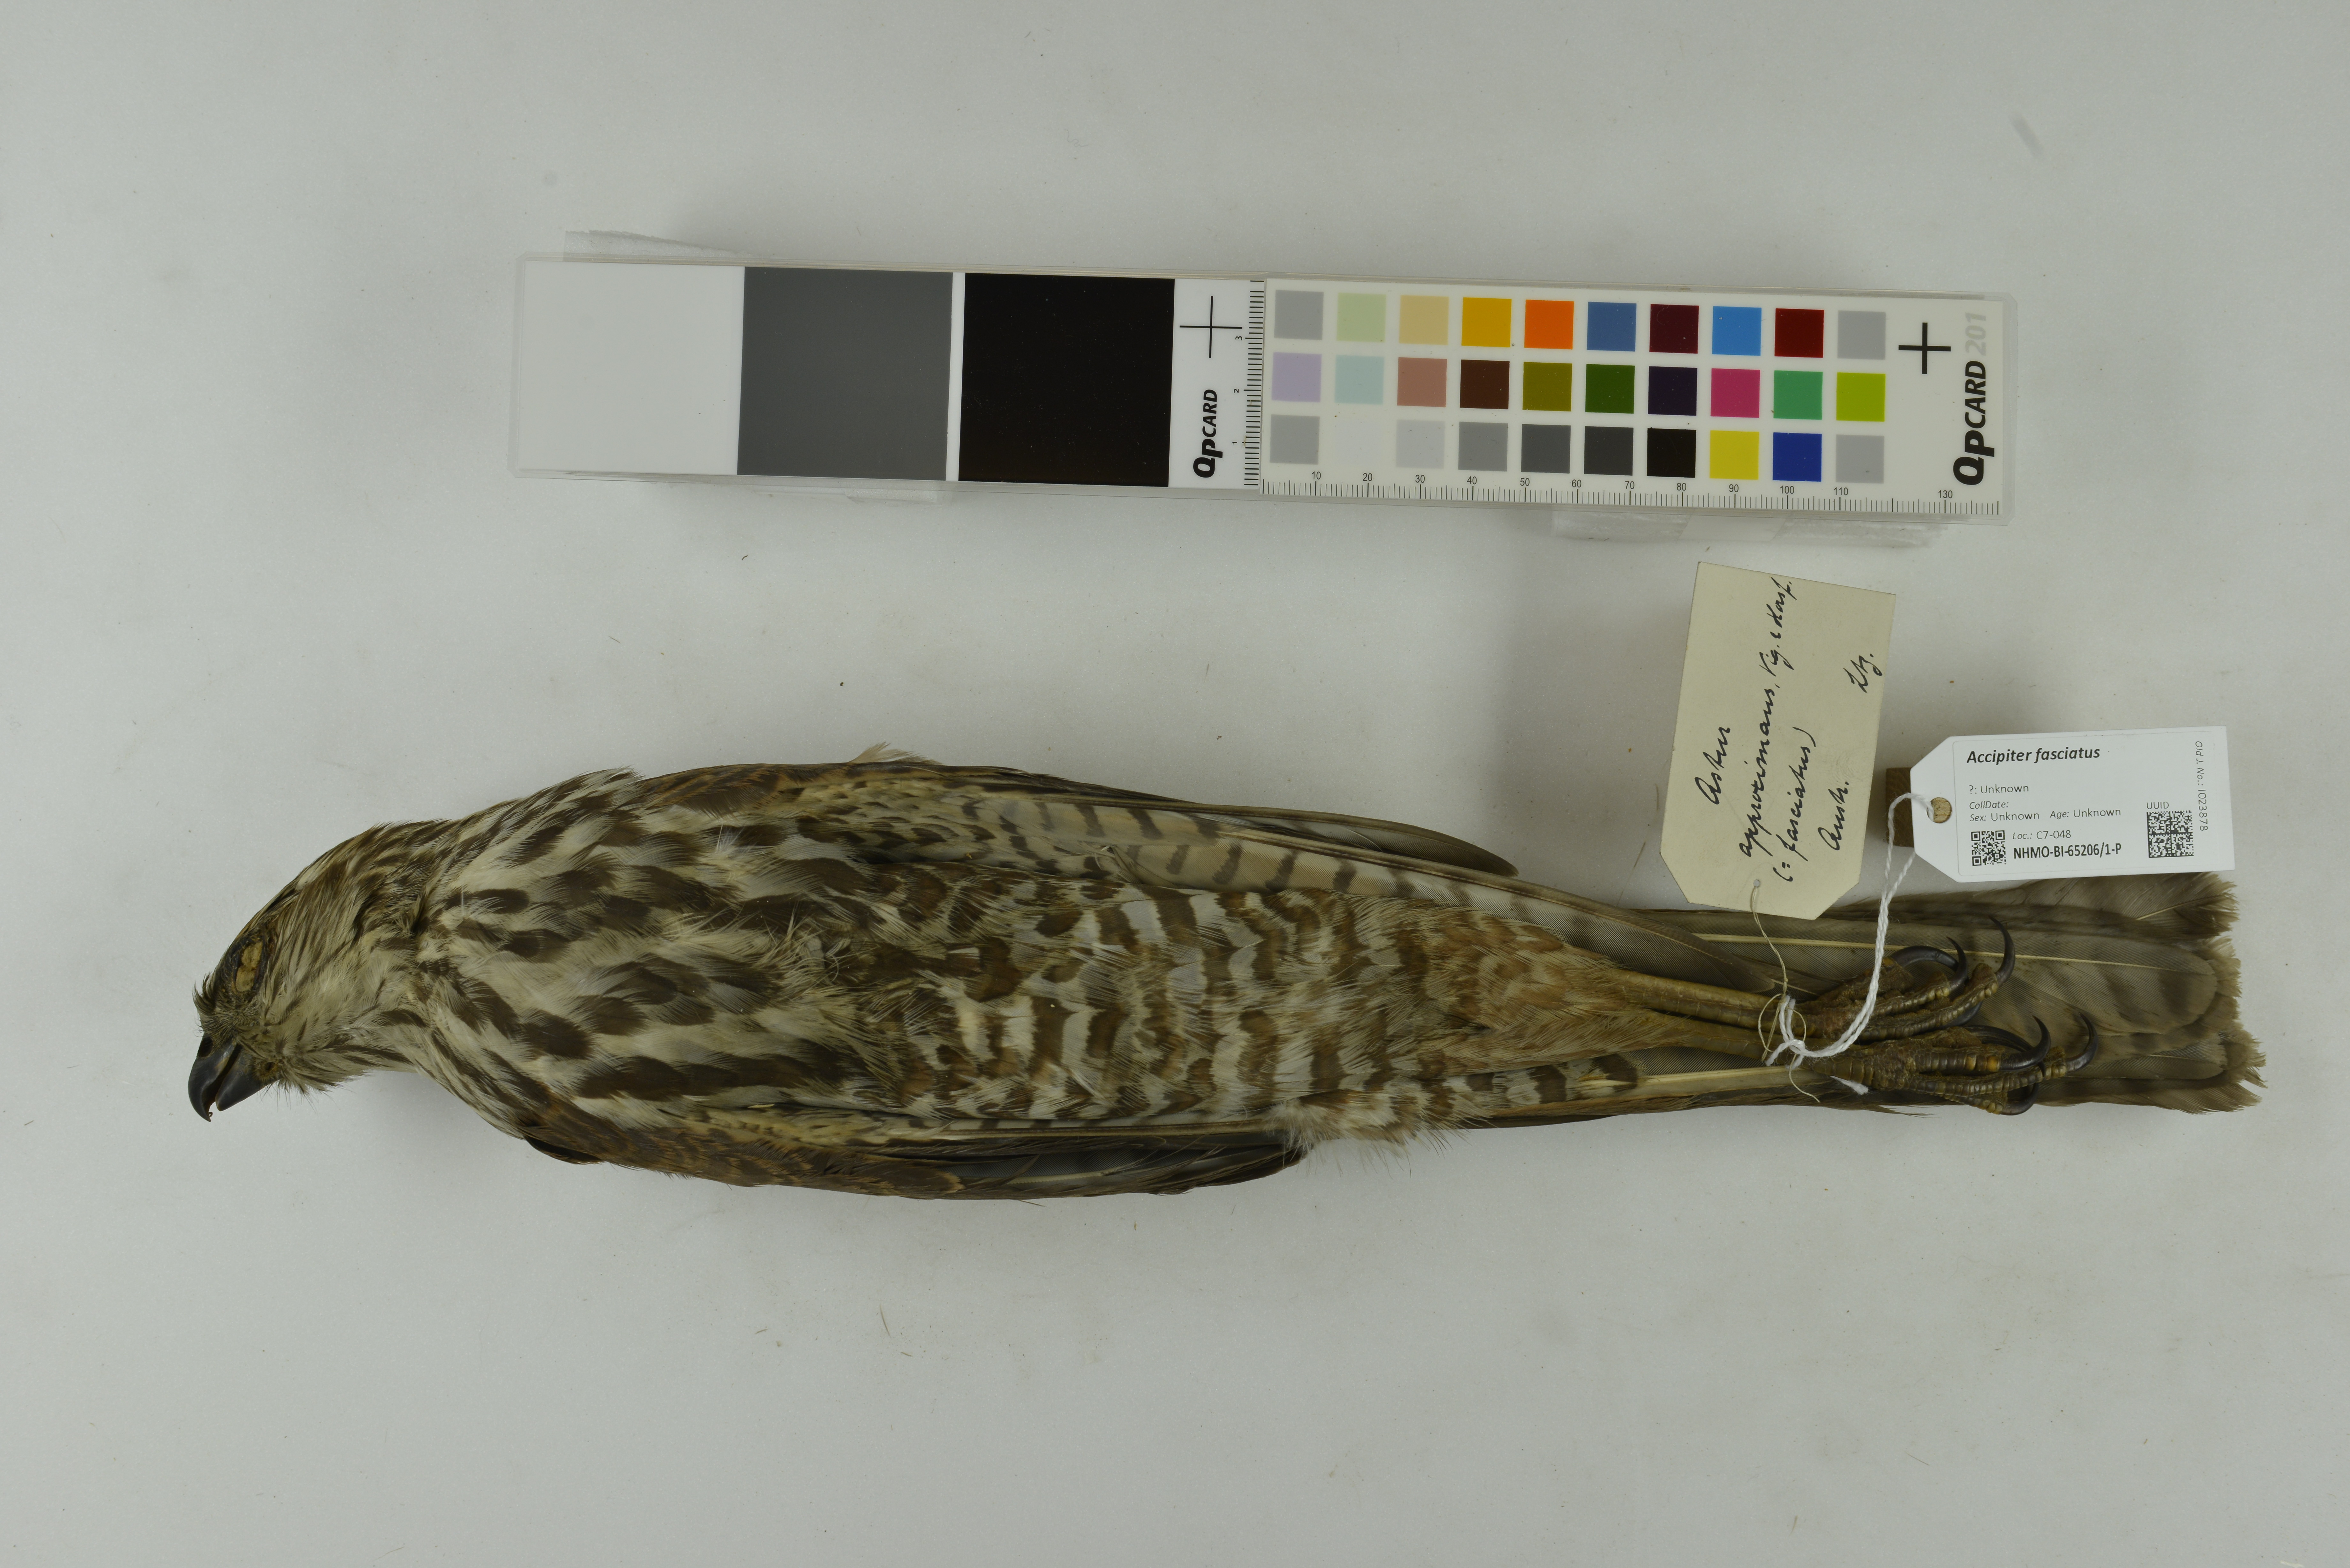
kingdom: Animalia
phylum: Chordata
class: Aves
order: Accipitriformes
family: Accipitridae
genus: Accipiter
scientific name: Accipiter fasciatus
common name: Brown goshawk
